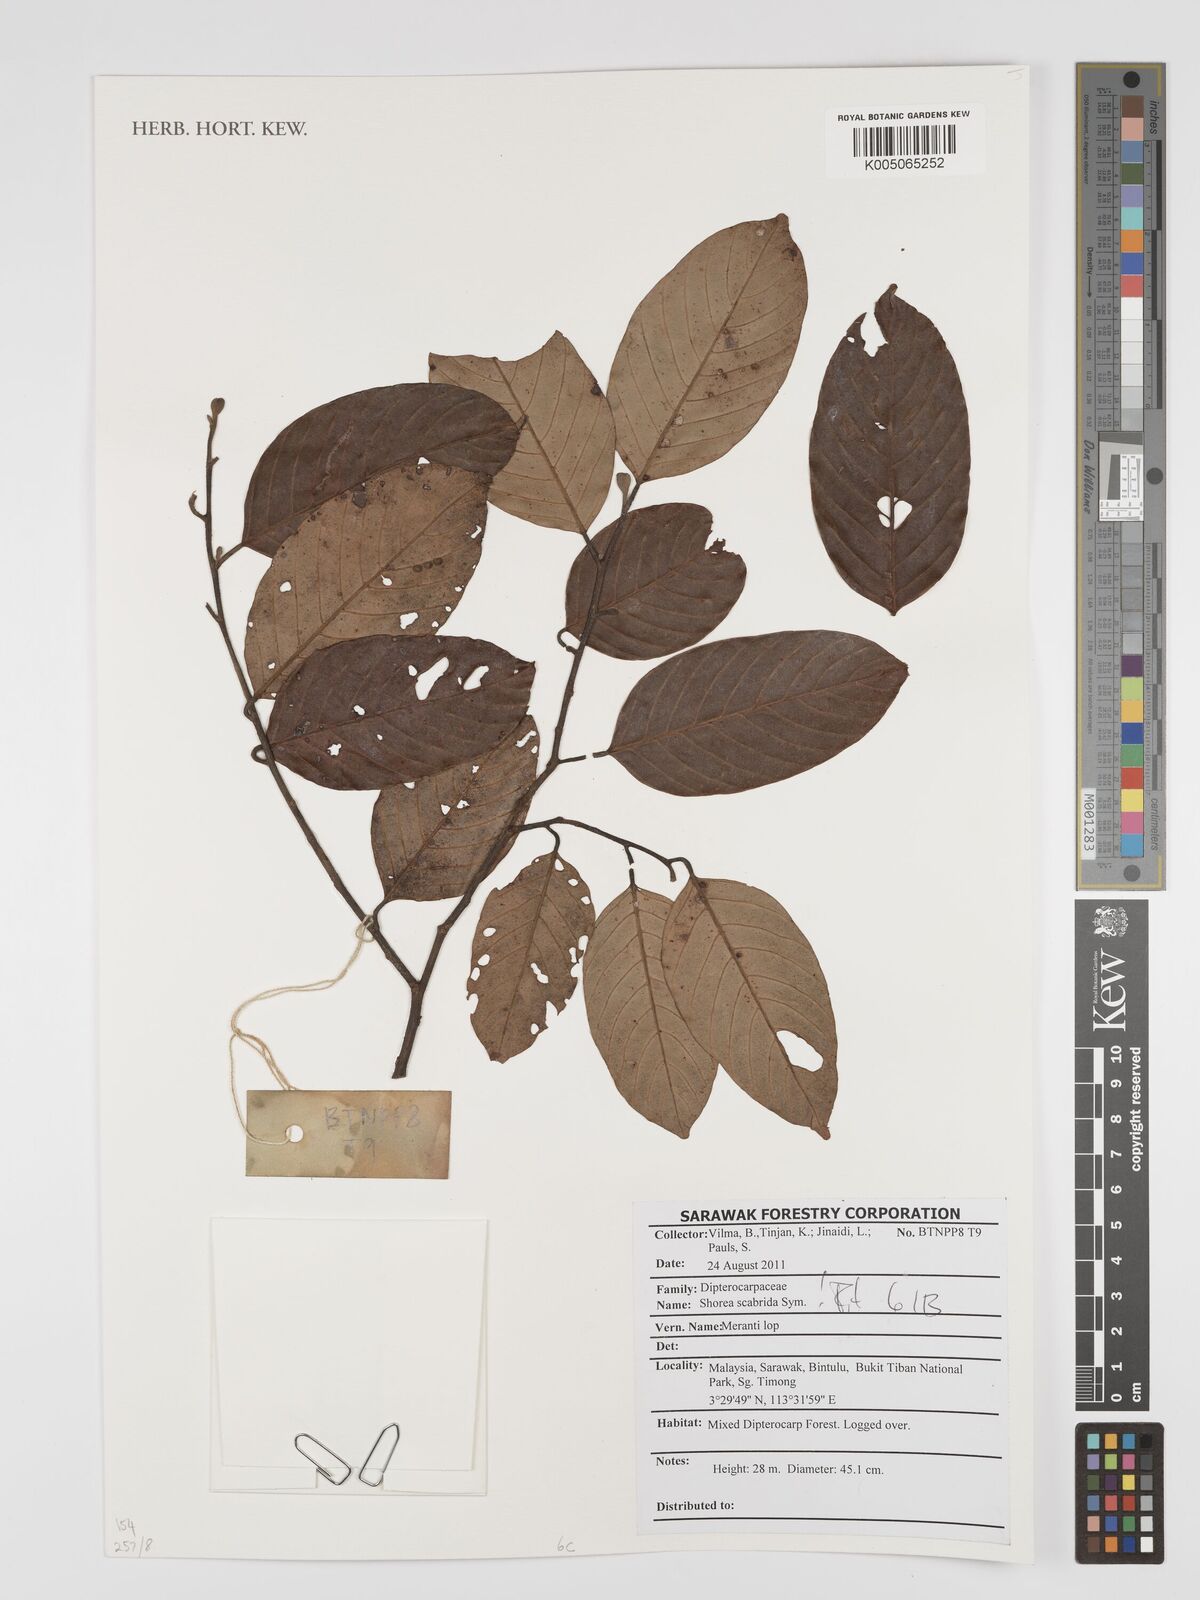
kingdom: Plantae
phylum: Tracheophyta
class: Magnoliopsida
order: Malvales
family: Dipterocarpaceae
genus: Shorea
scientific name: Shorea scabrida
